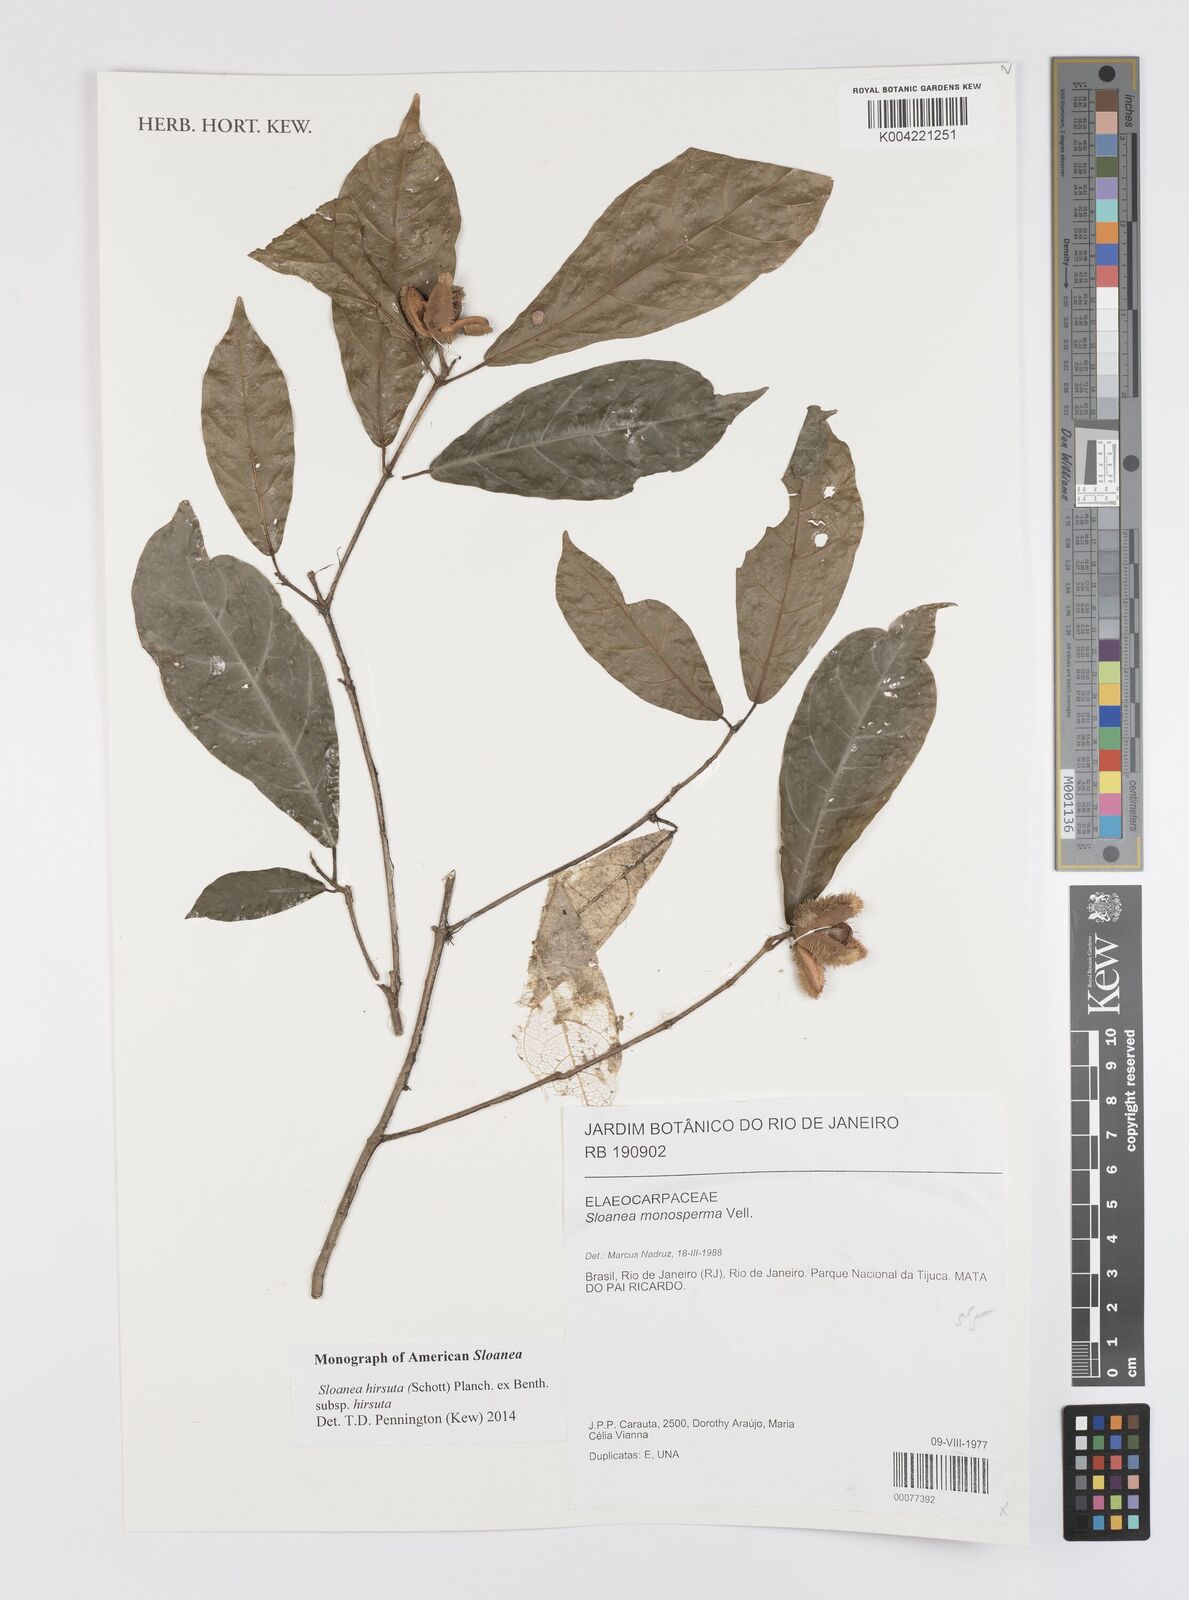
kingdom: Plantae
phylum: Tracheophyta
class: Magnoliopsida
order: Oxalidales
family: Elaeocarpaceae
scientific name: Elaeocarpaceae
